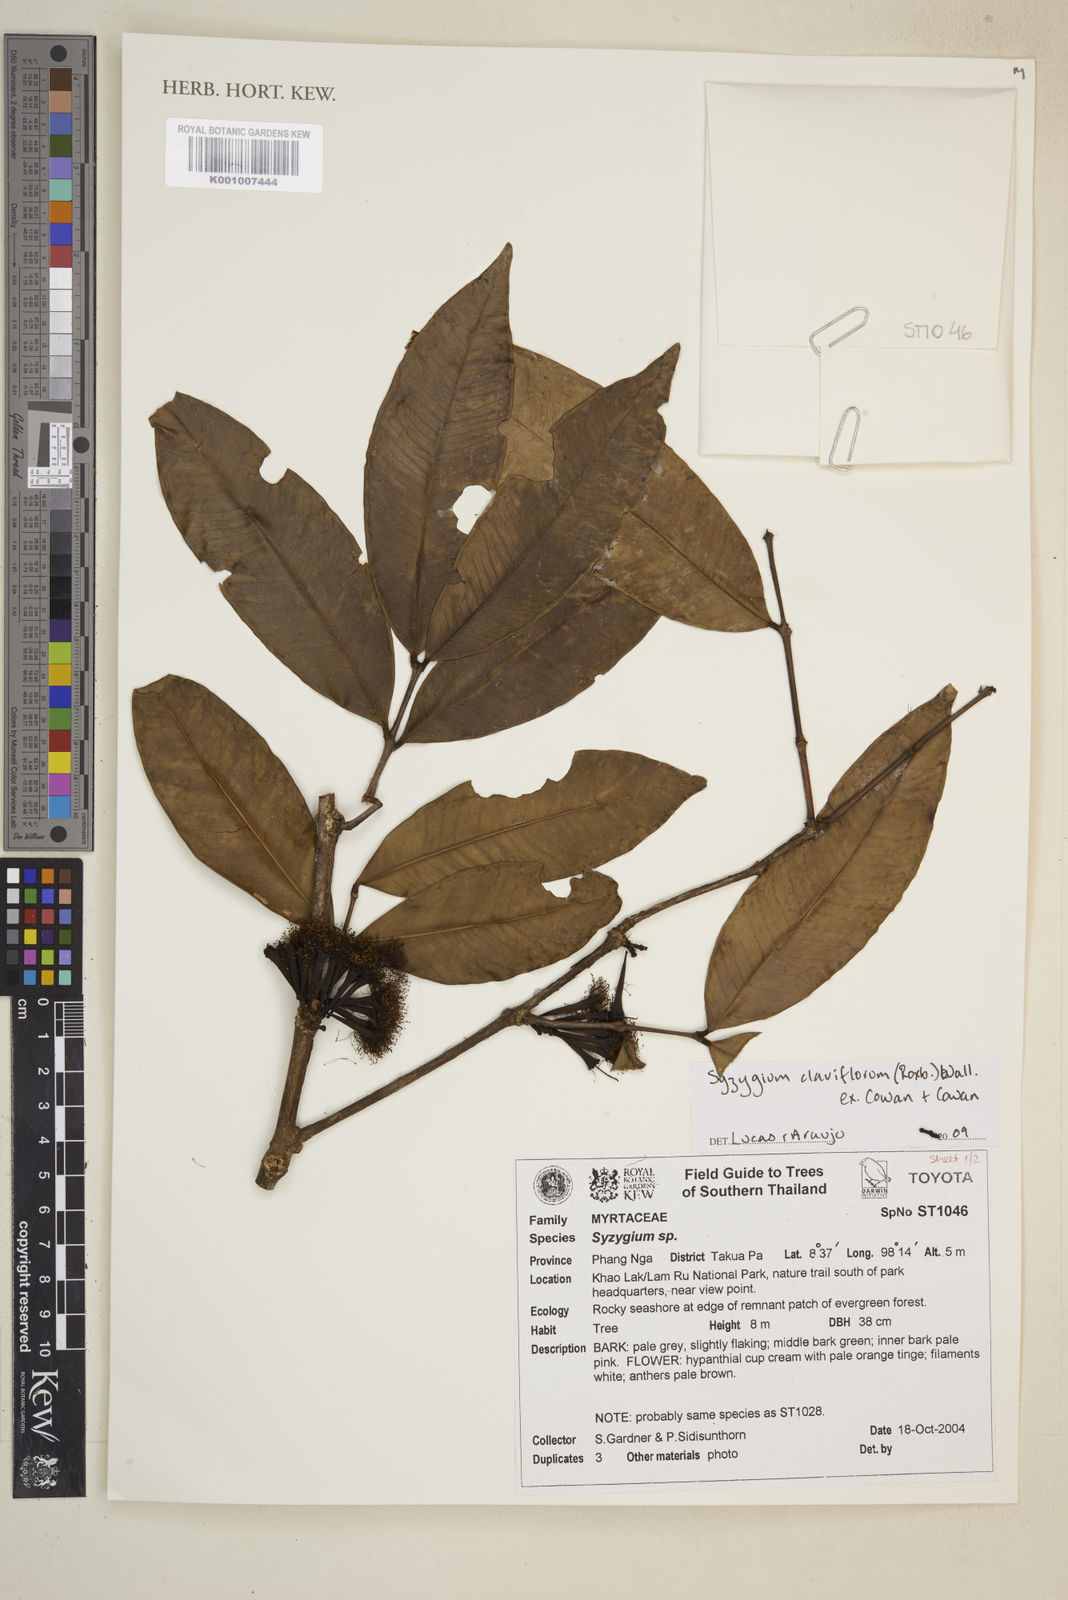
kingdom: Plantae
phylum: Tracheophyta
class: Magnoliopsida
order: Myrtales
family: Myrtaceae
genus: Syzygium
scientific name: Syzygium claviflorum
